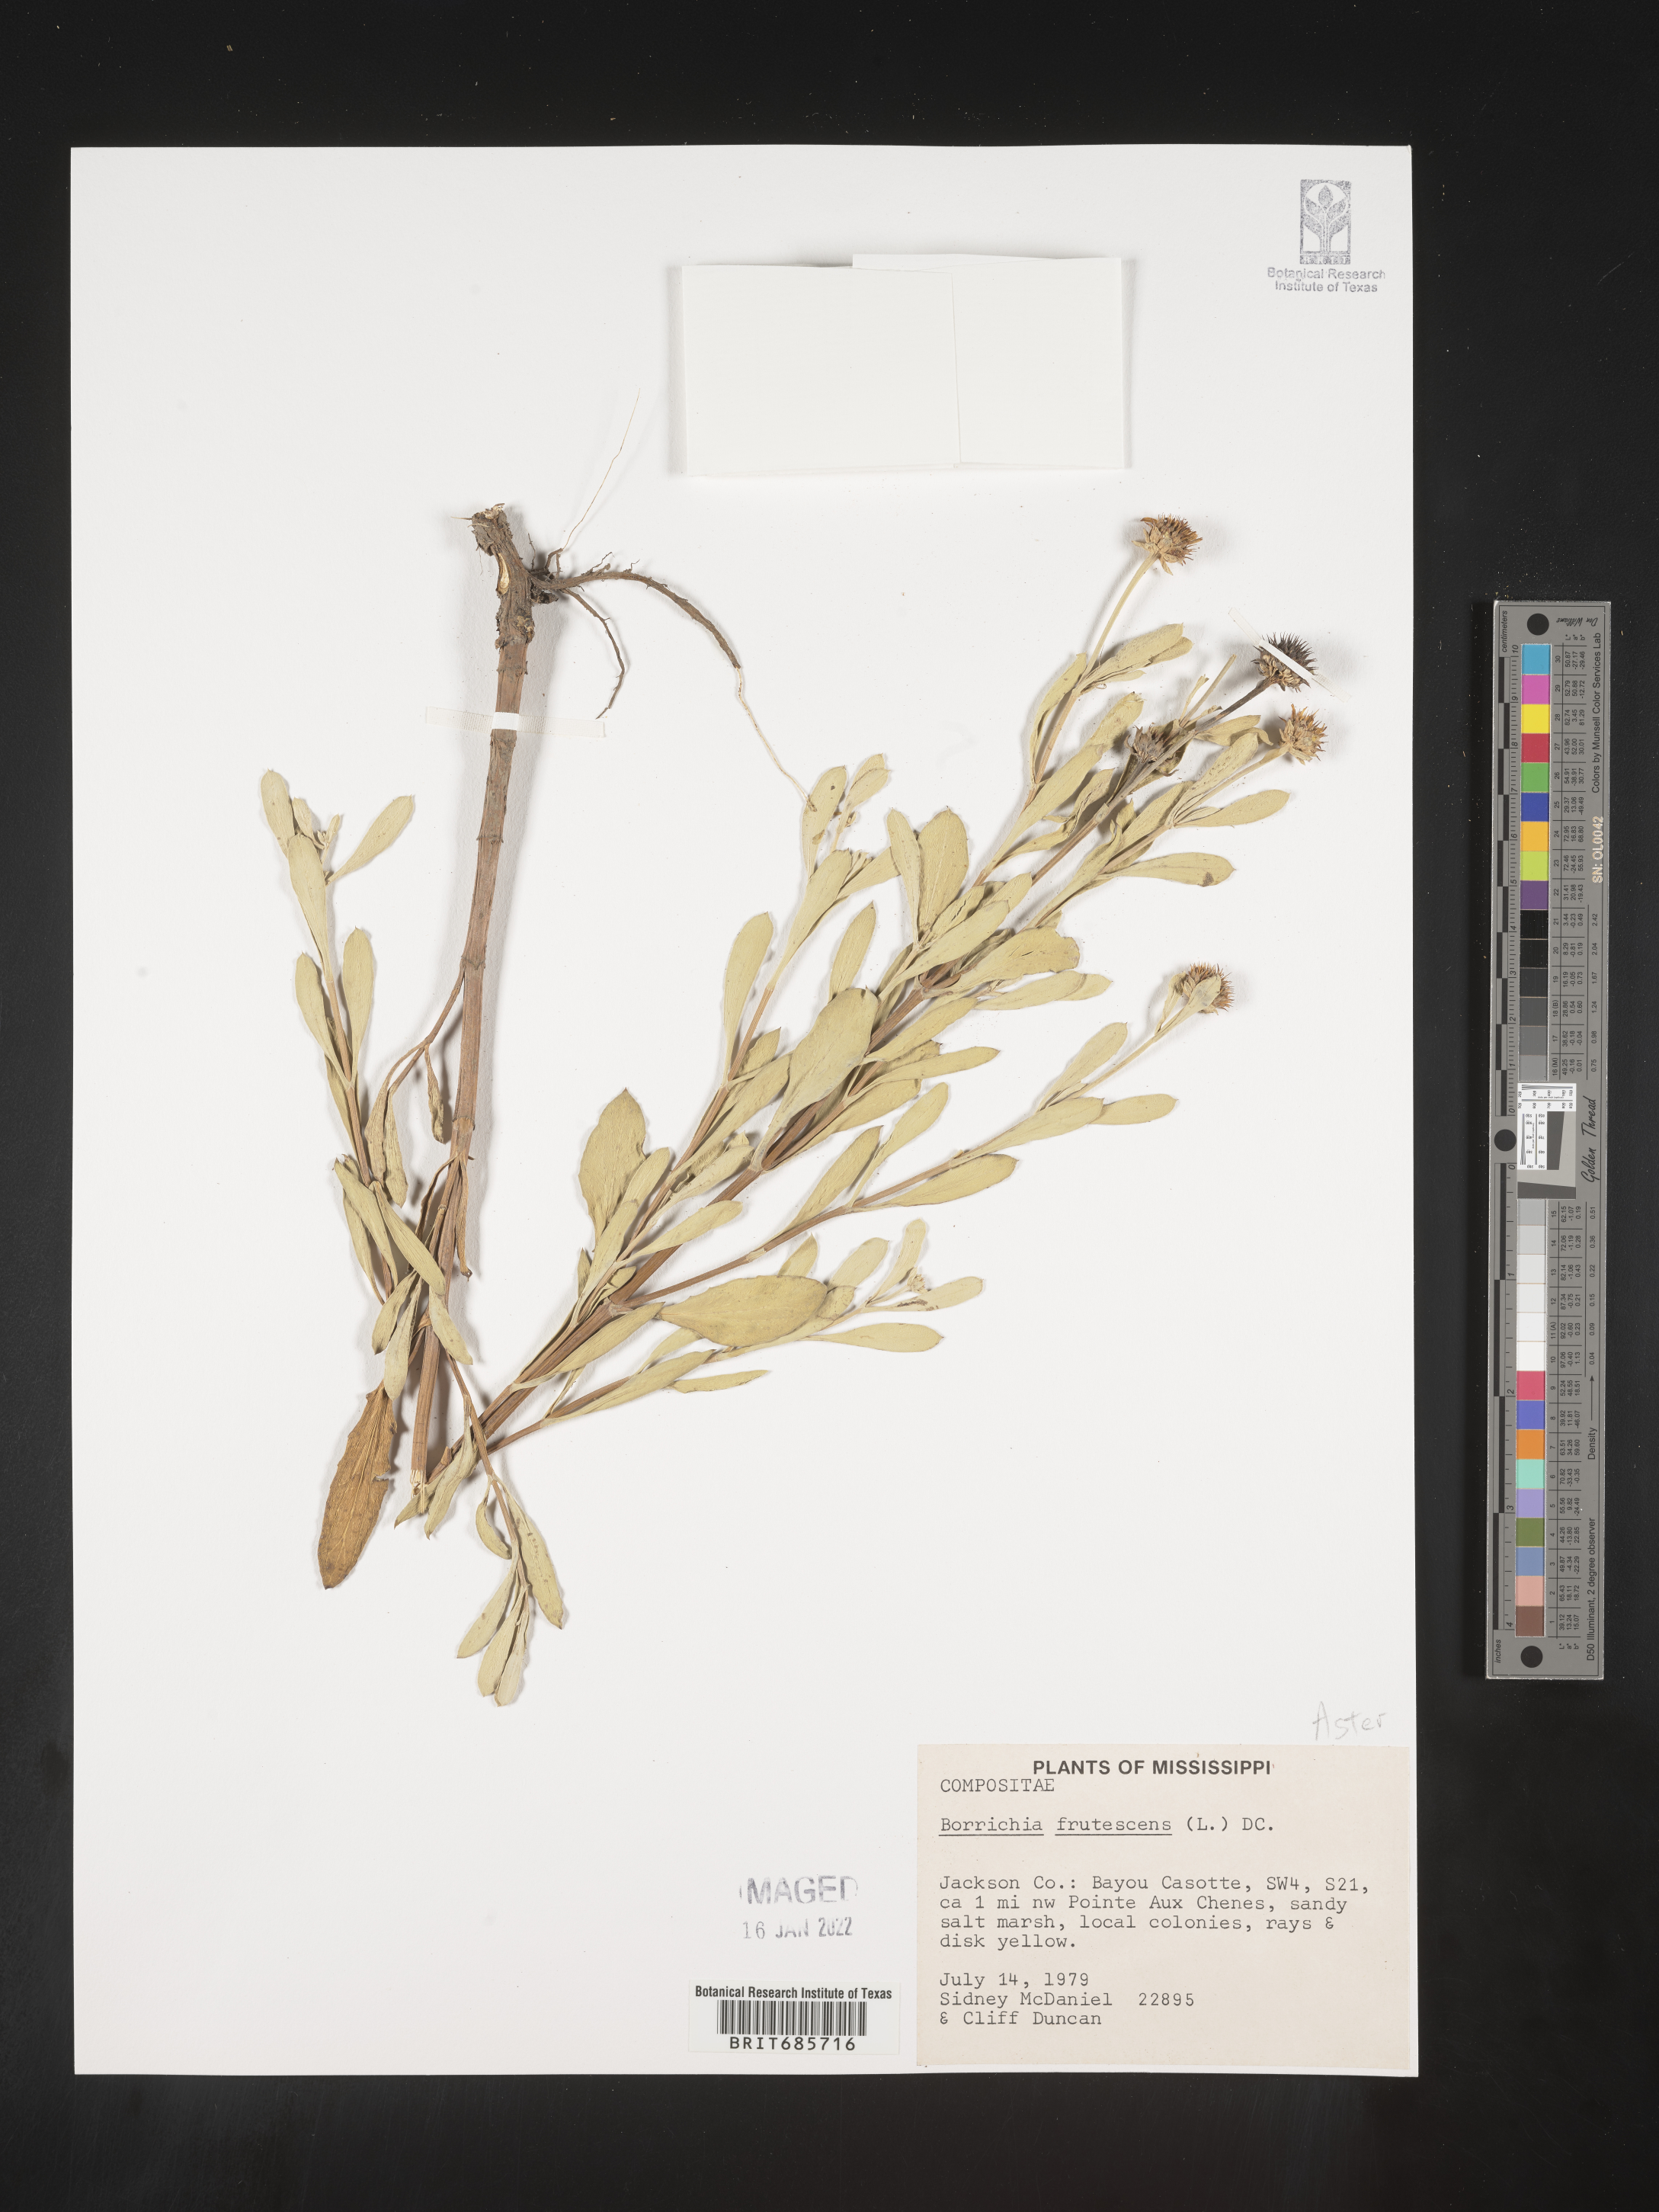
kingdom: Plantae
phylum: Tracheophyta
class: Magnoliopsida
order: Asterales
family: Asteraceae
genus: Borrichia
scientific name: Borrichia frutescens
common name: Sea oxeye
